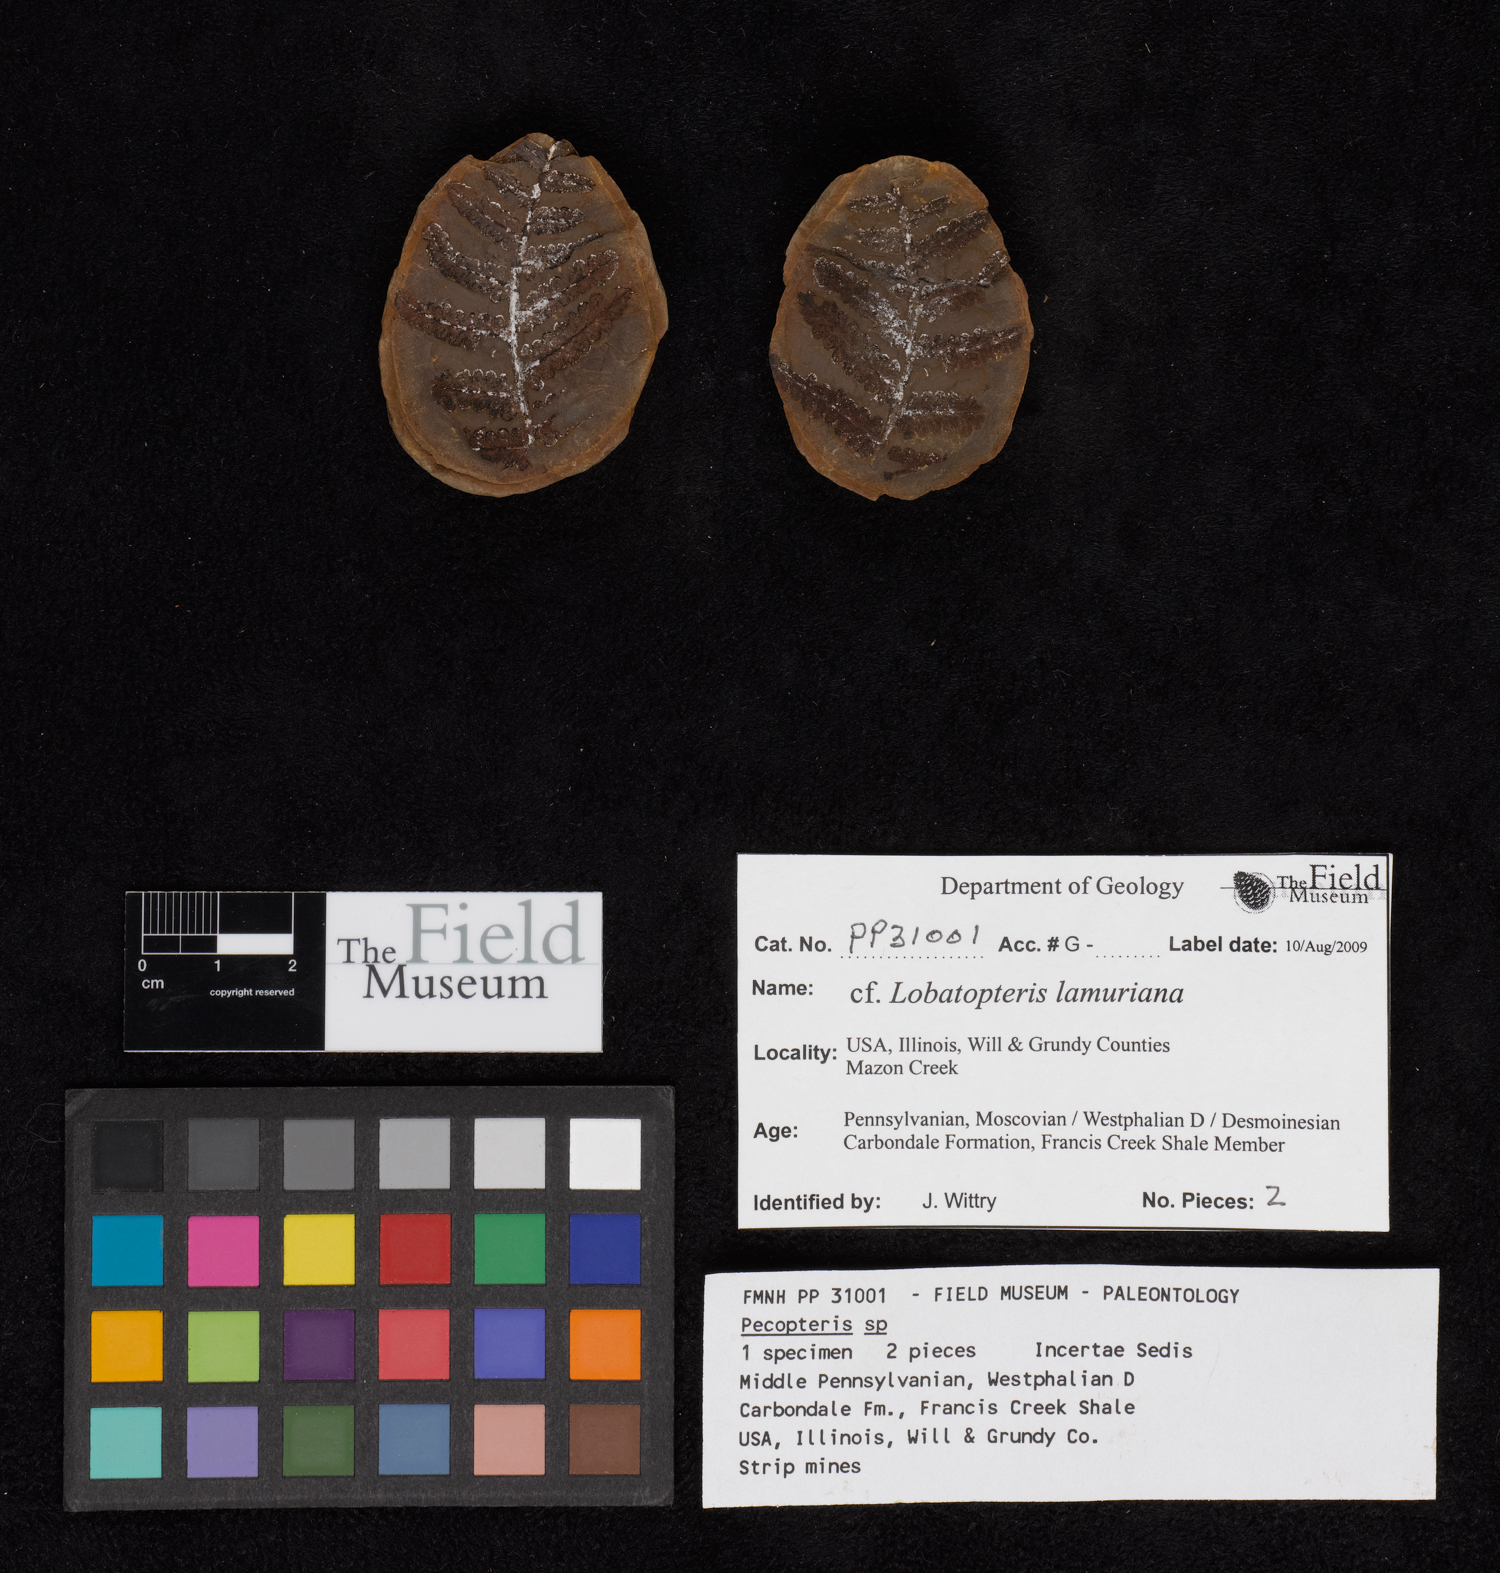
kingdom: Plantae
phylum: Tracheophyta
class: Polypodiopsida
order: Marattiales
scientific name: Marattiales
